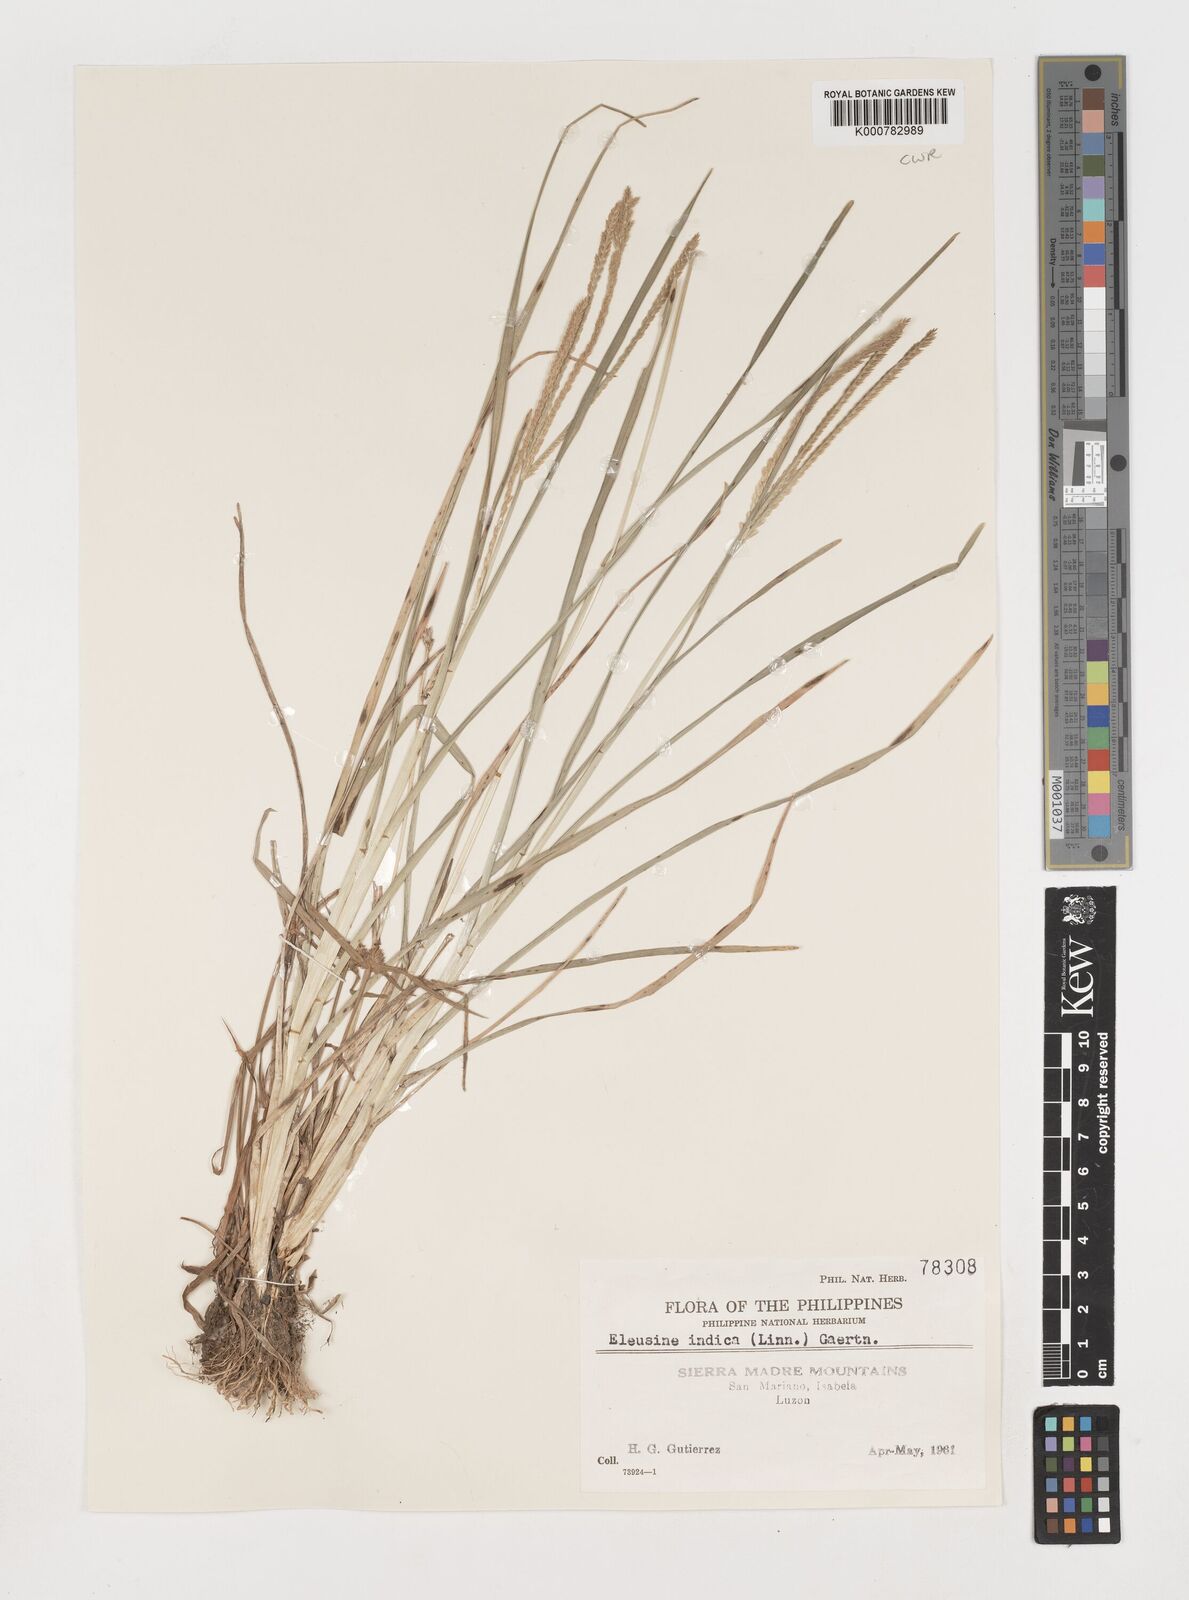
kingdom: Plantae
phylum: Tracheophyta
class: Liliopsida
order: Poales
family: Poaceae
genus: Eleusine
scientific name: Eleusine indica
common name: Yard-grass
